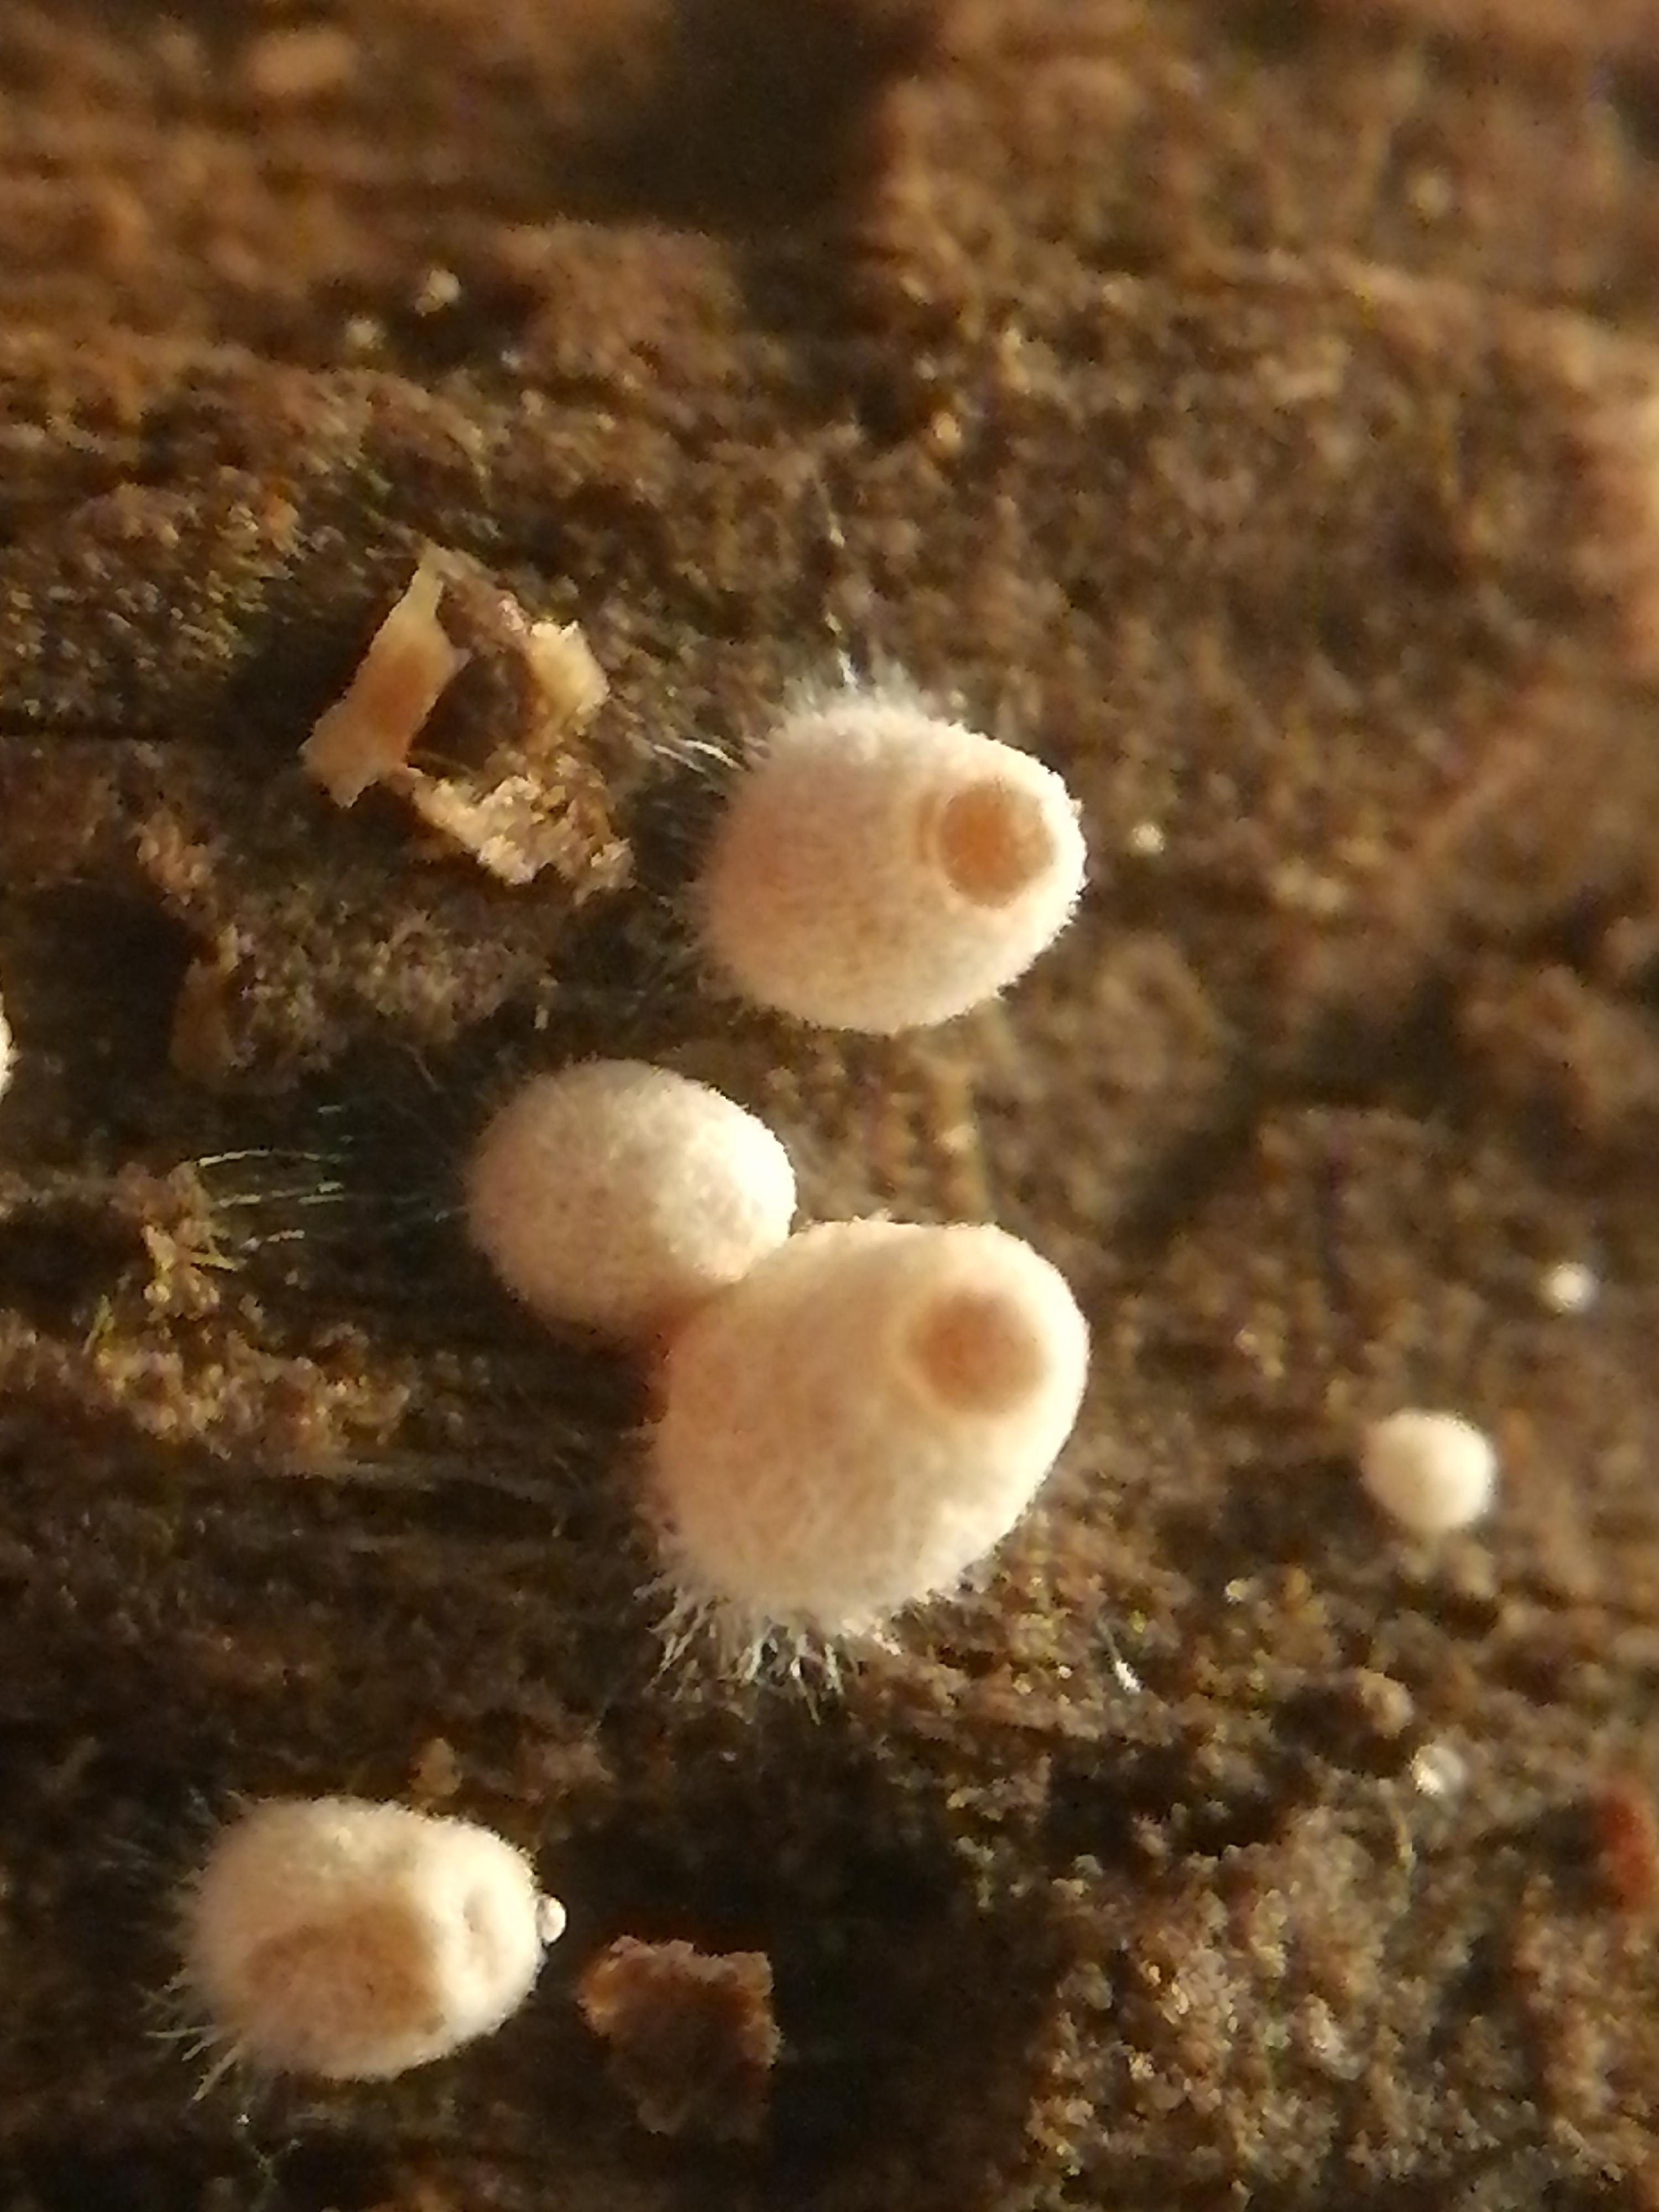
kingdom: Fungi
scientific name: Fungi
